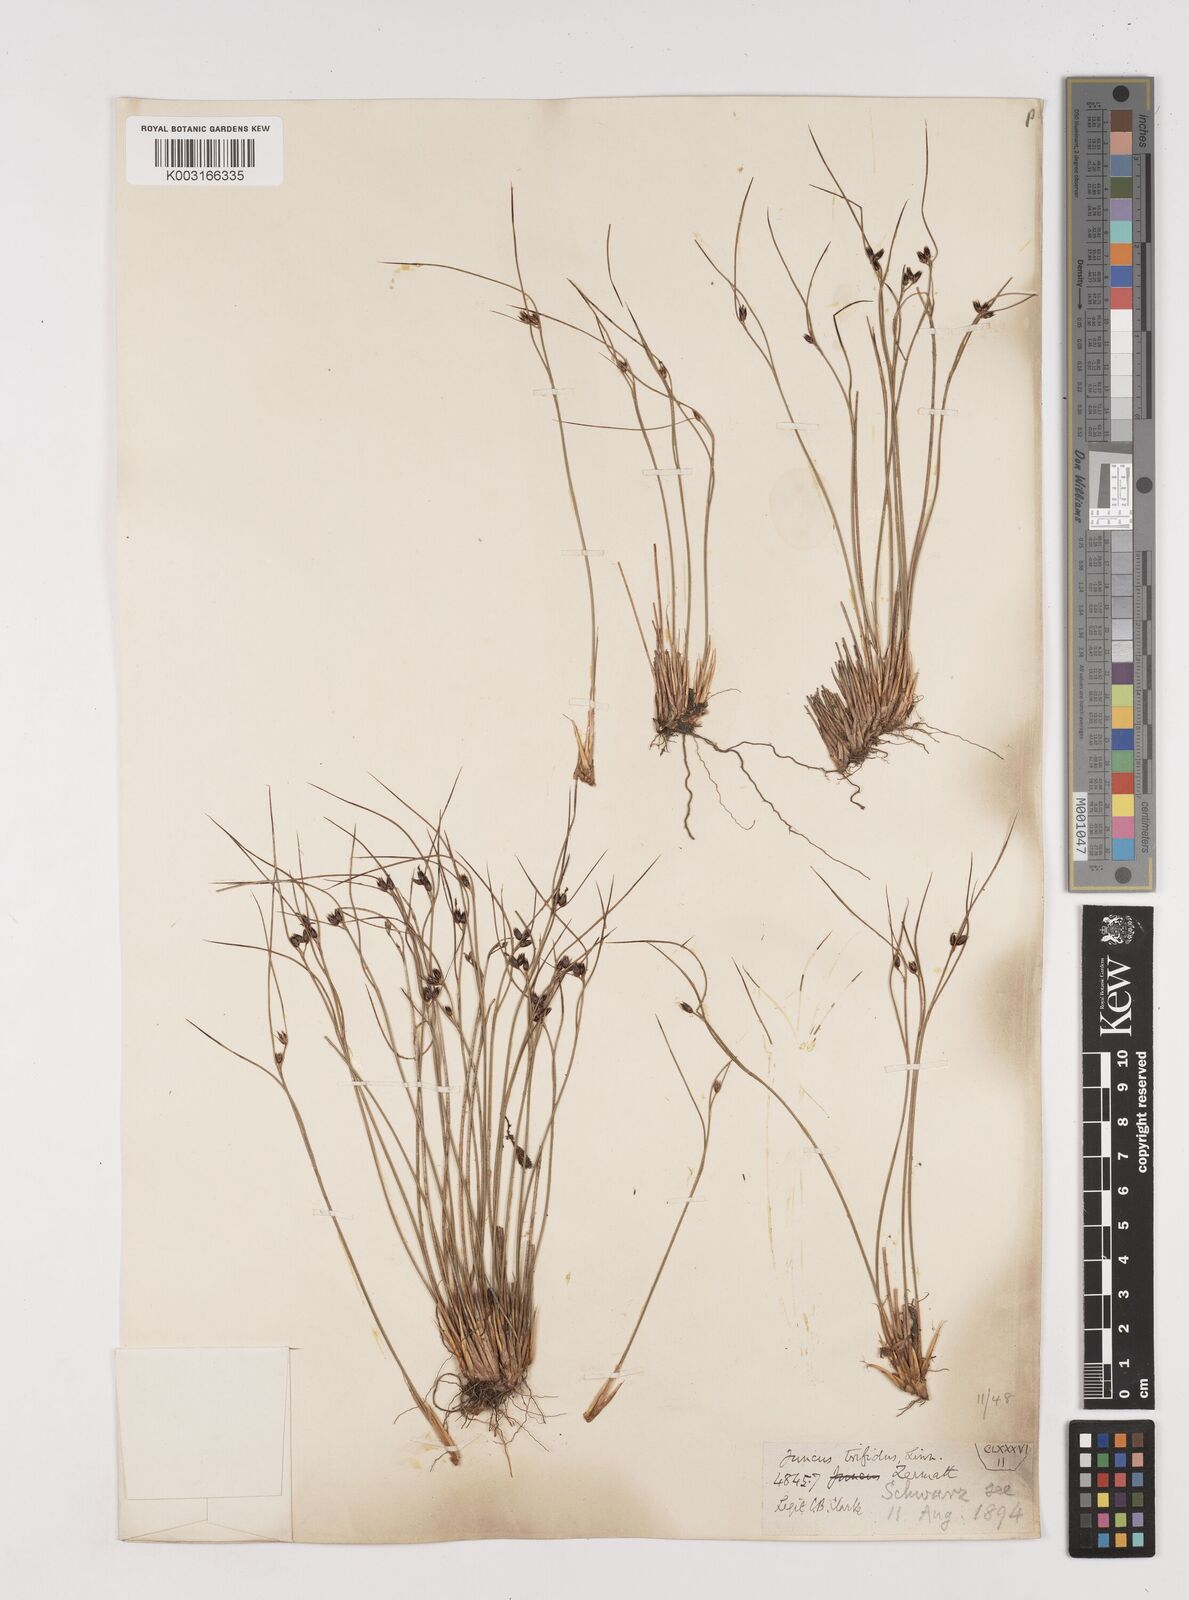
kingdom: Plantae
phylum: Tracheophyta
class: Liliopsida
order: Poales
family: Juncaceae
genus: Oreojuncus
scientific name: Oreojuncus trifidus
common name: Highland rush
